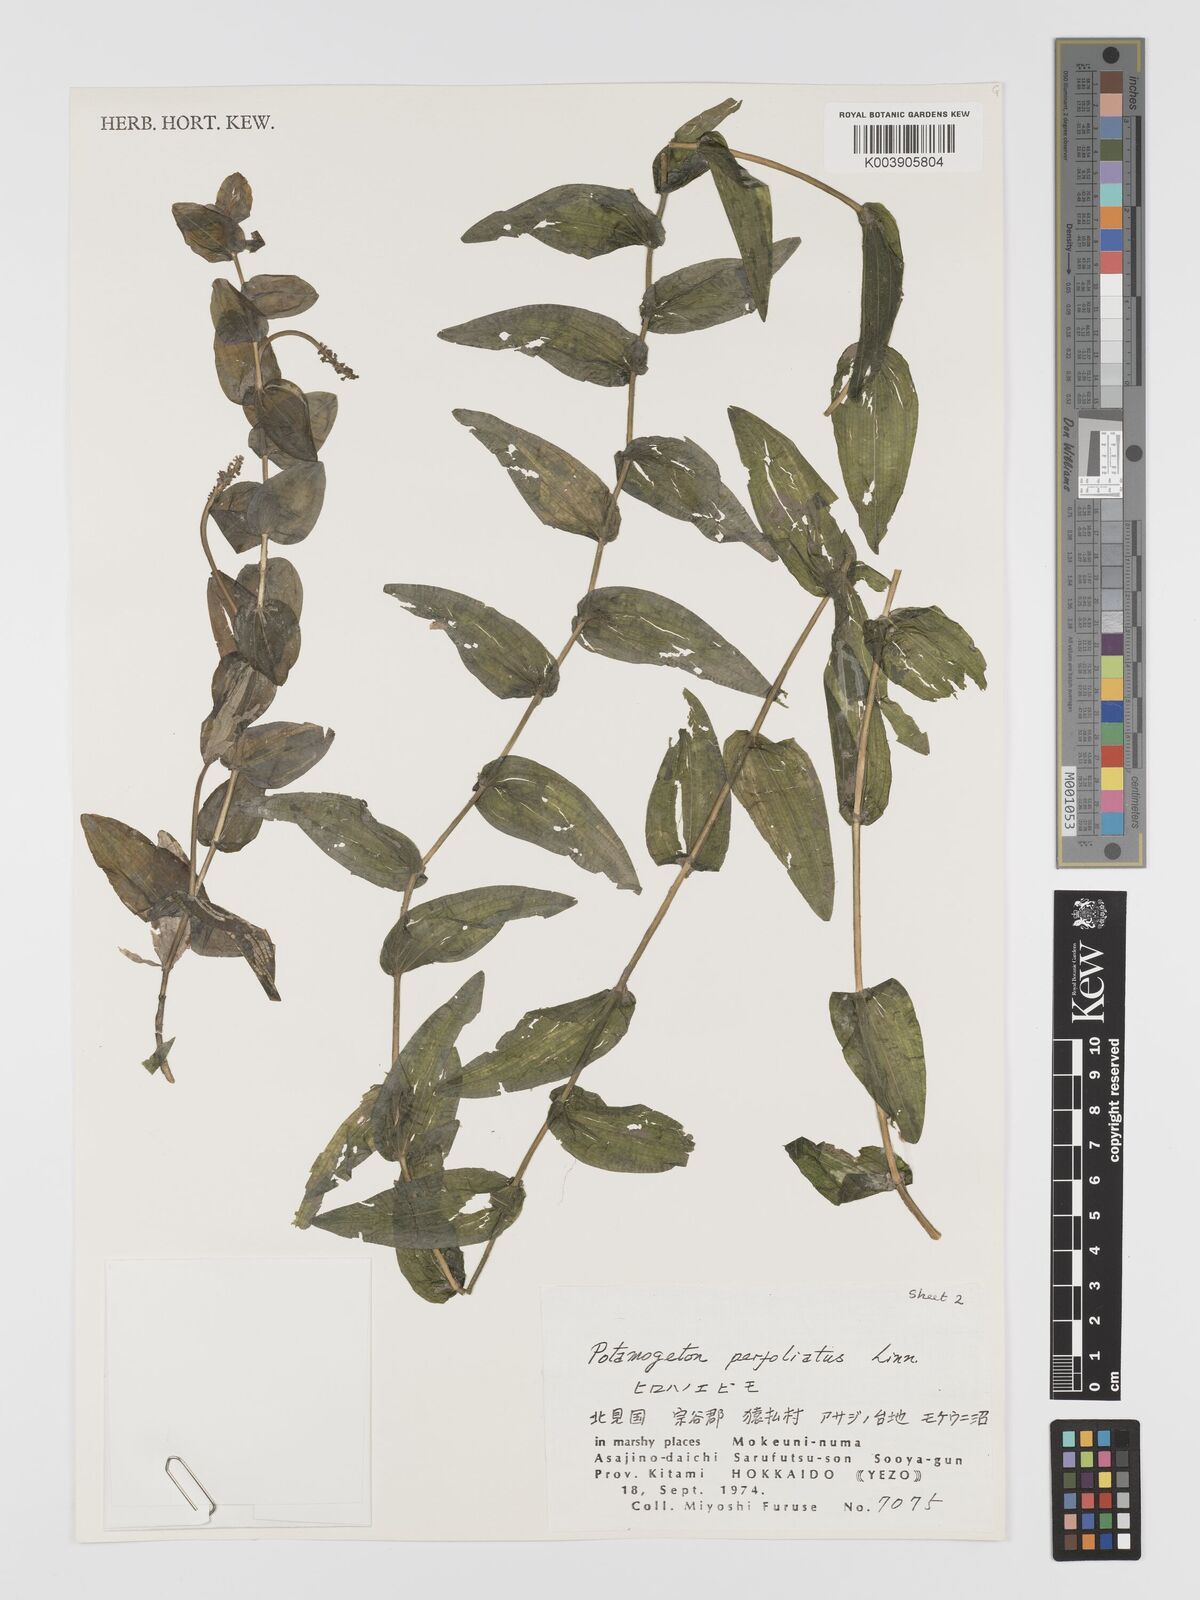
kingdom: Plantae
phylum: Tracheophyta
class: Liliopsida
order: Alismatales
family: Potamogetonaceae
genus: Potamogeton
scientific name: Potamogeton perfoliatus
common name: Perfoliate pondweed
